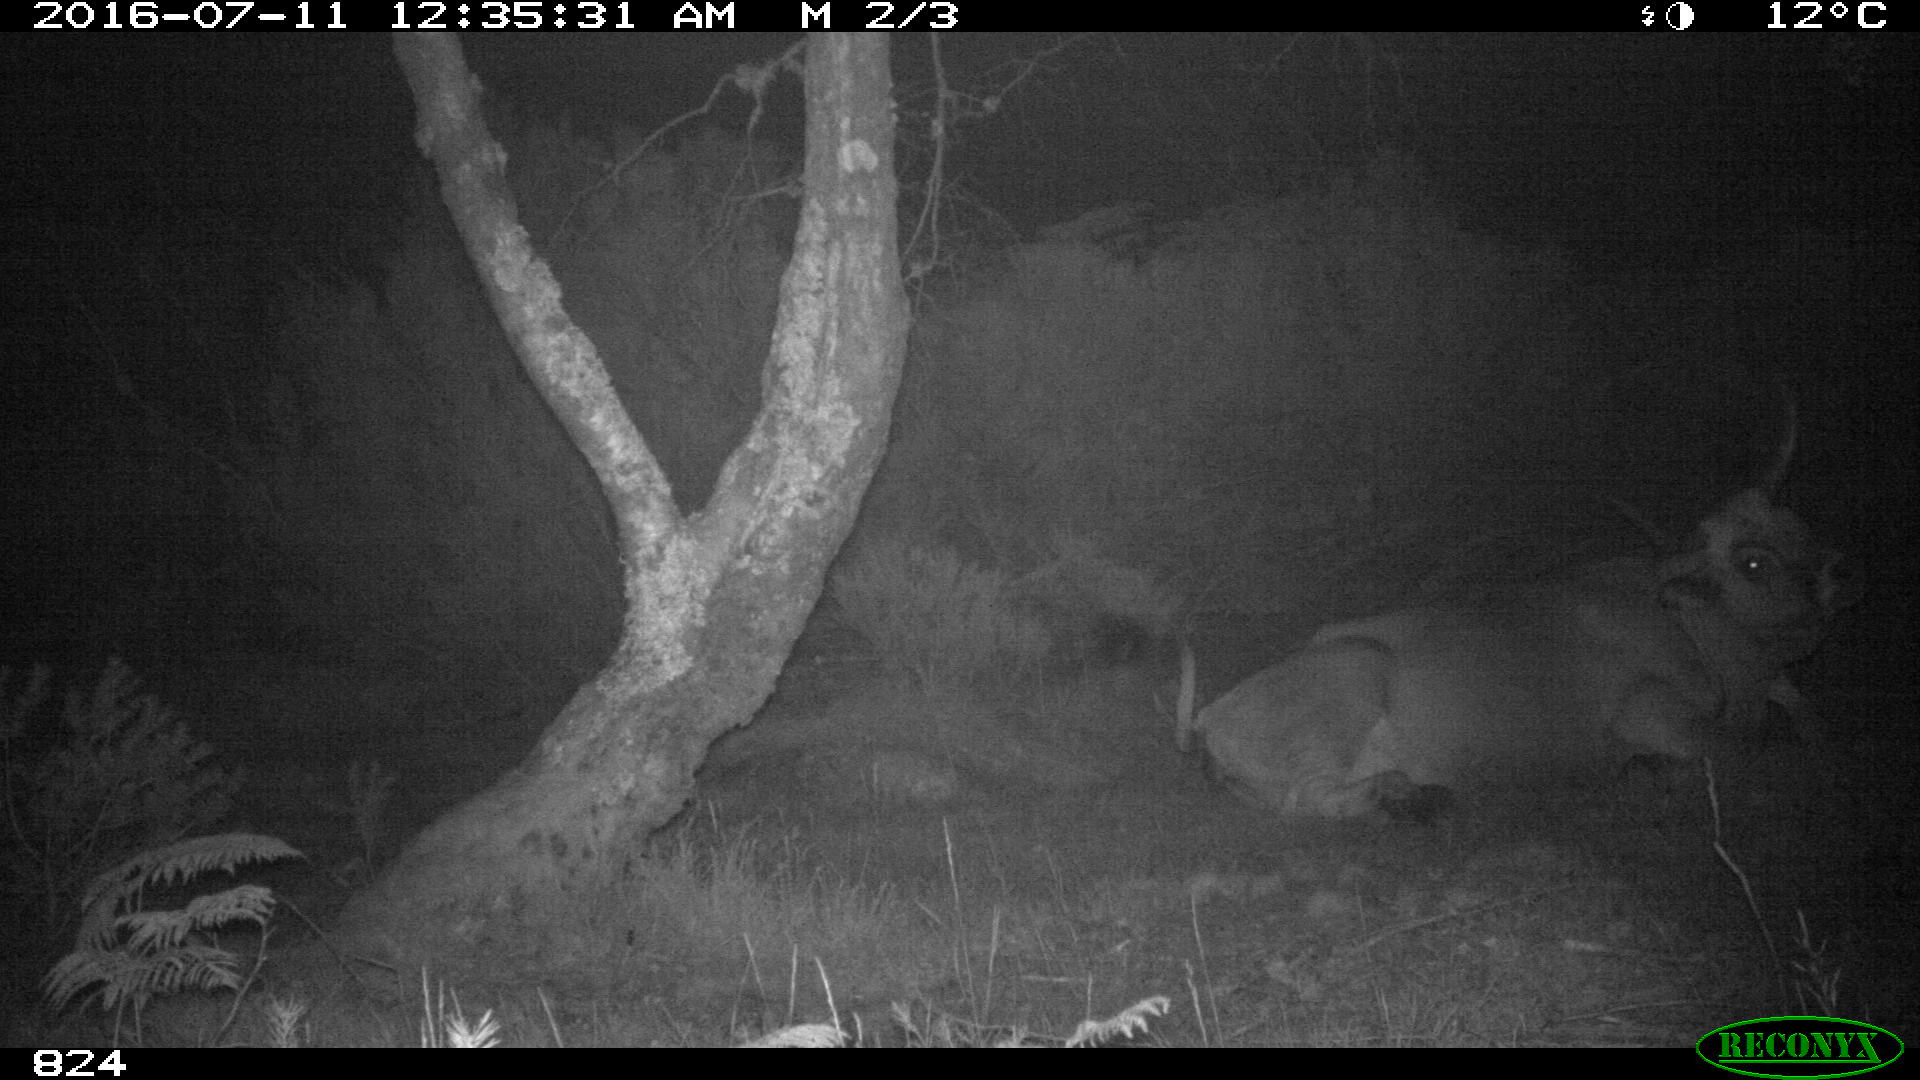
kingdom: Animalia
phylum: Chordata
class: Mammalia
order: Artiodactyla
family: Bovidae
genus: Bos
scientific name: Bos taurus
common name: Domesticated cattle
